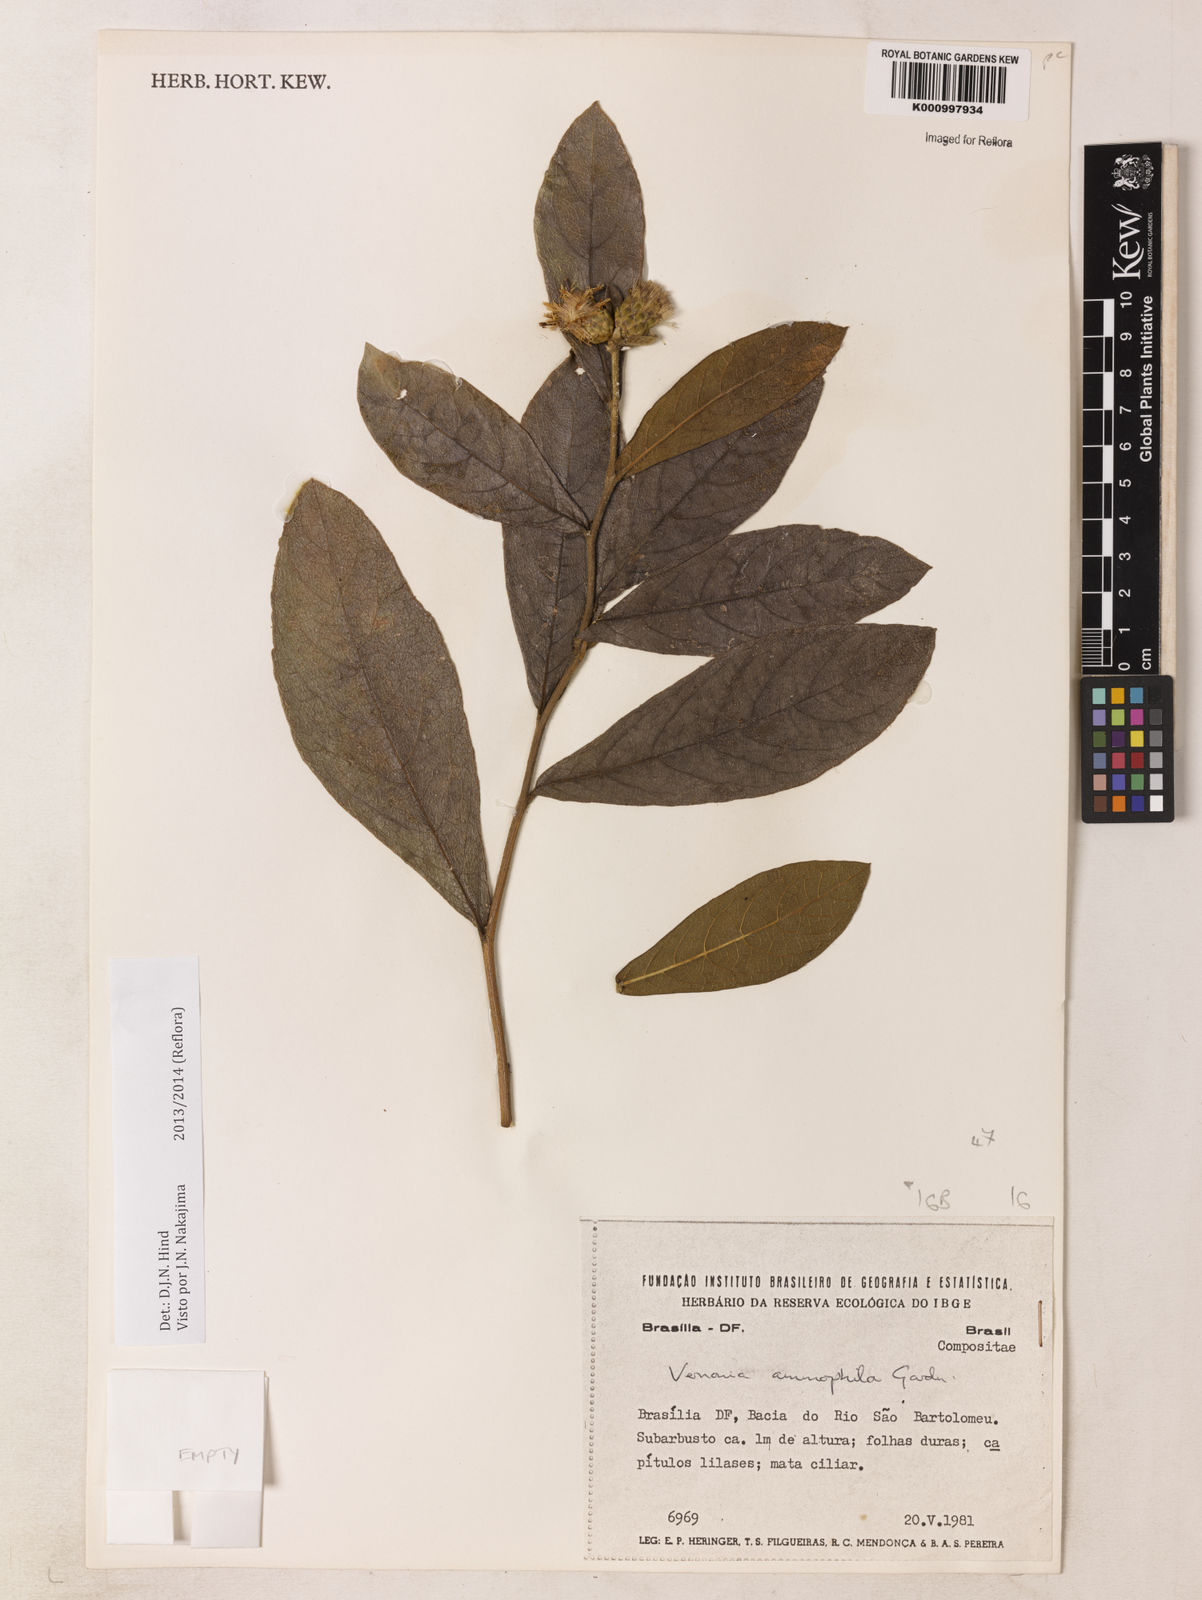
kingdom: Plantae
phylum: Tracheophyta
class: Magnoliopsida
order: Asterales
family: Asteraceae
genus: Lessingianthus
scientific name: Lessingianthus ammophilus
